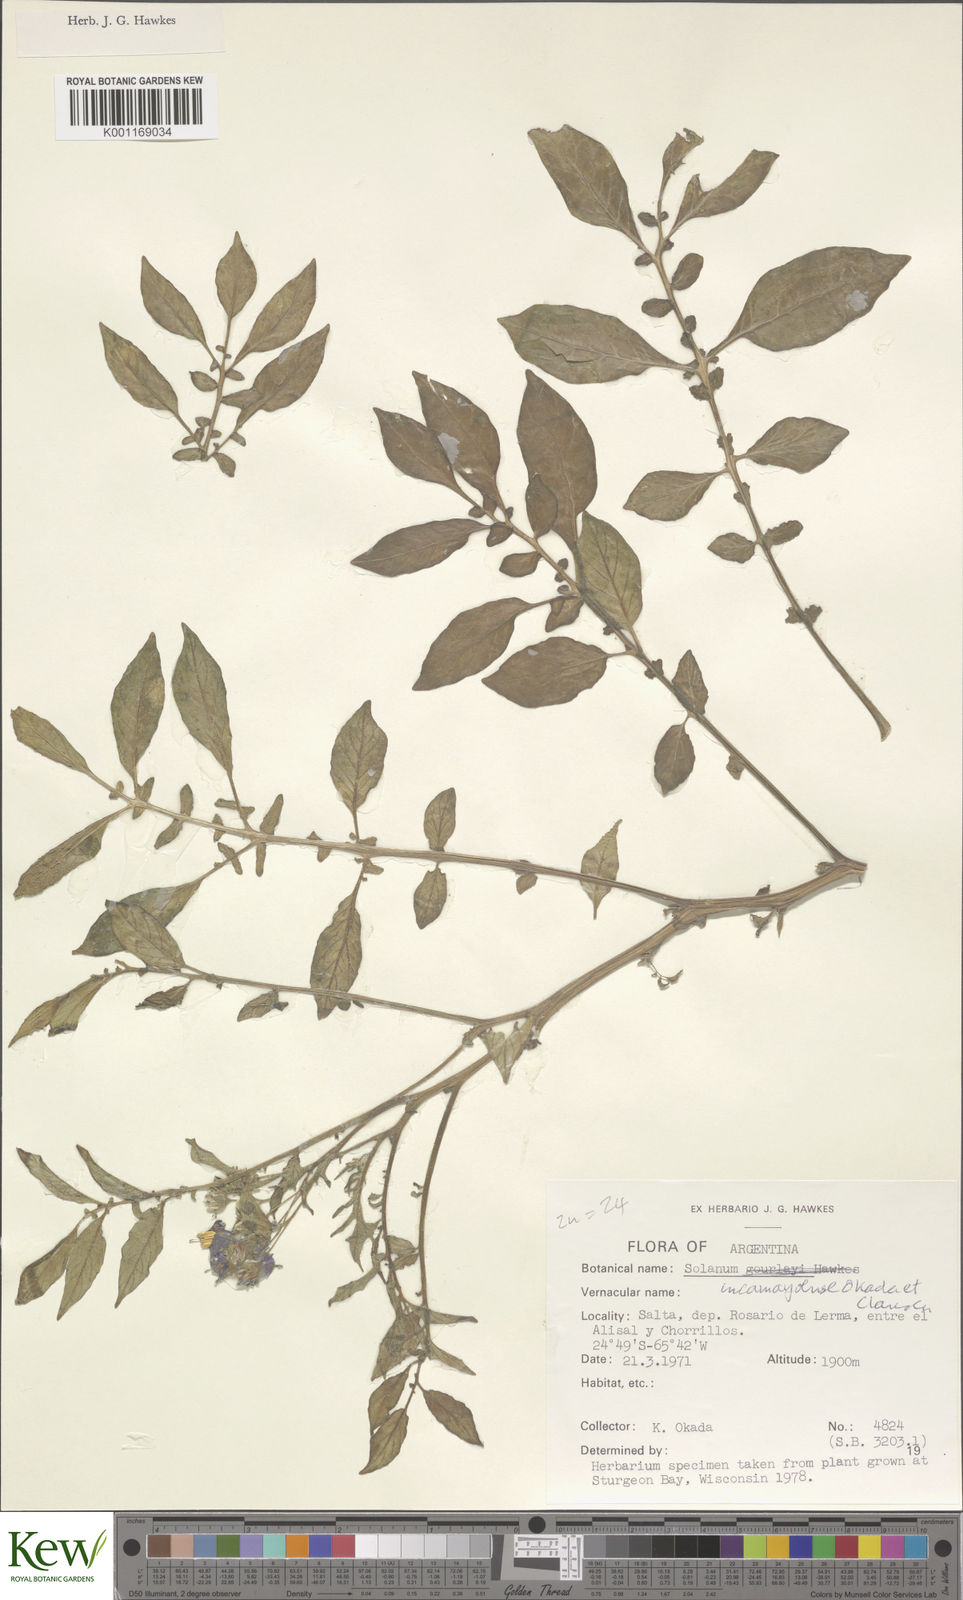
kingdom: Plantae
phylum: Tracheophyta
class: Magnoliopsida
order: Solanales
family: Solanaceae
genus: Solanum
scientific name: Solanum brevicaule
